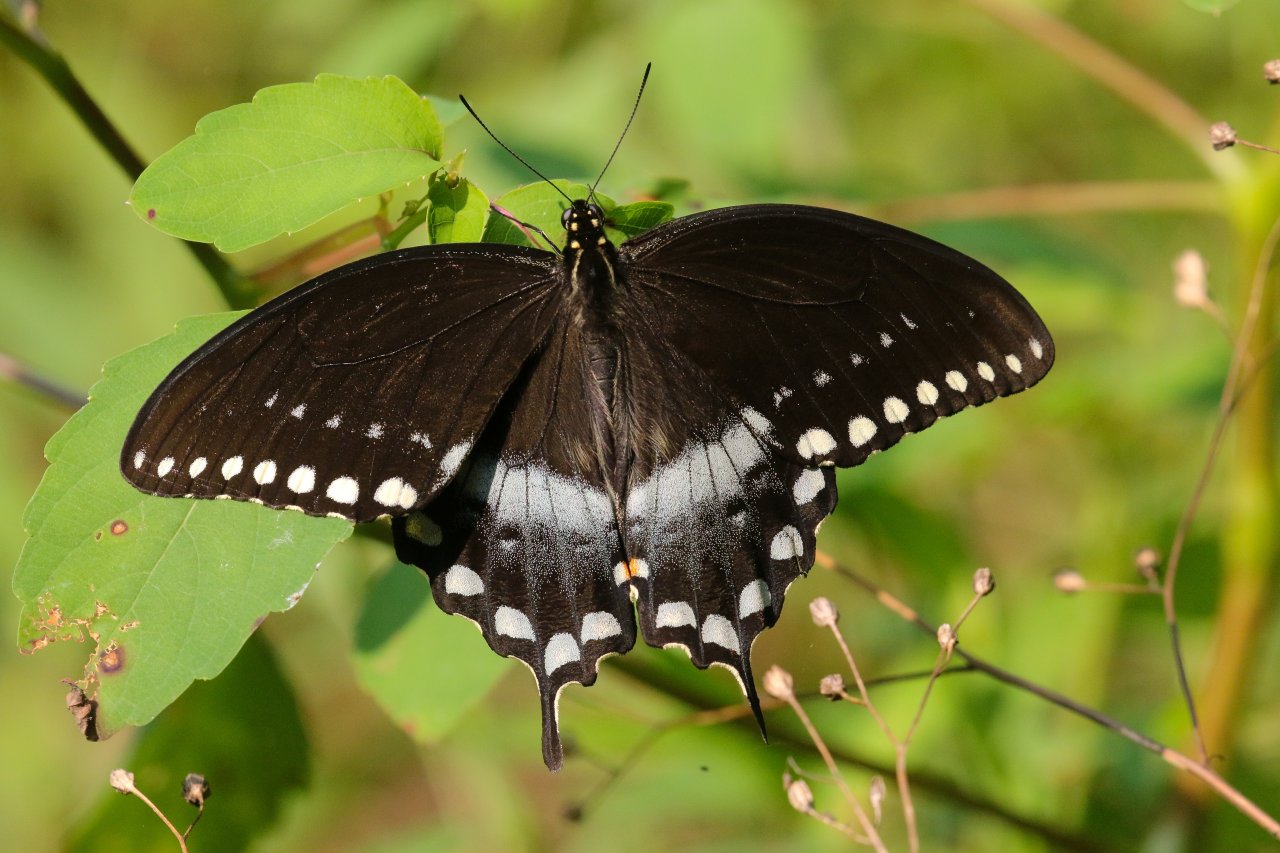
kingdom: Animalia
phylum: Arthropoda
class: Insecta
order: Lepidoptera
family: Papilionidae
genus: Pterourus
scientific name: Pterourus troilus
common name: Spicebush Swallowtail
